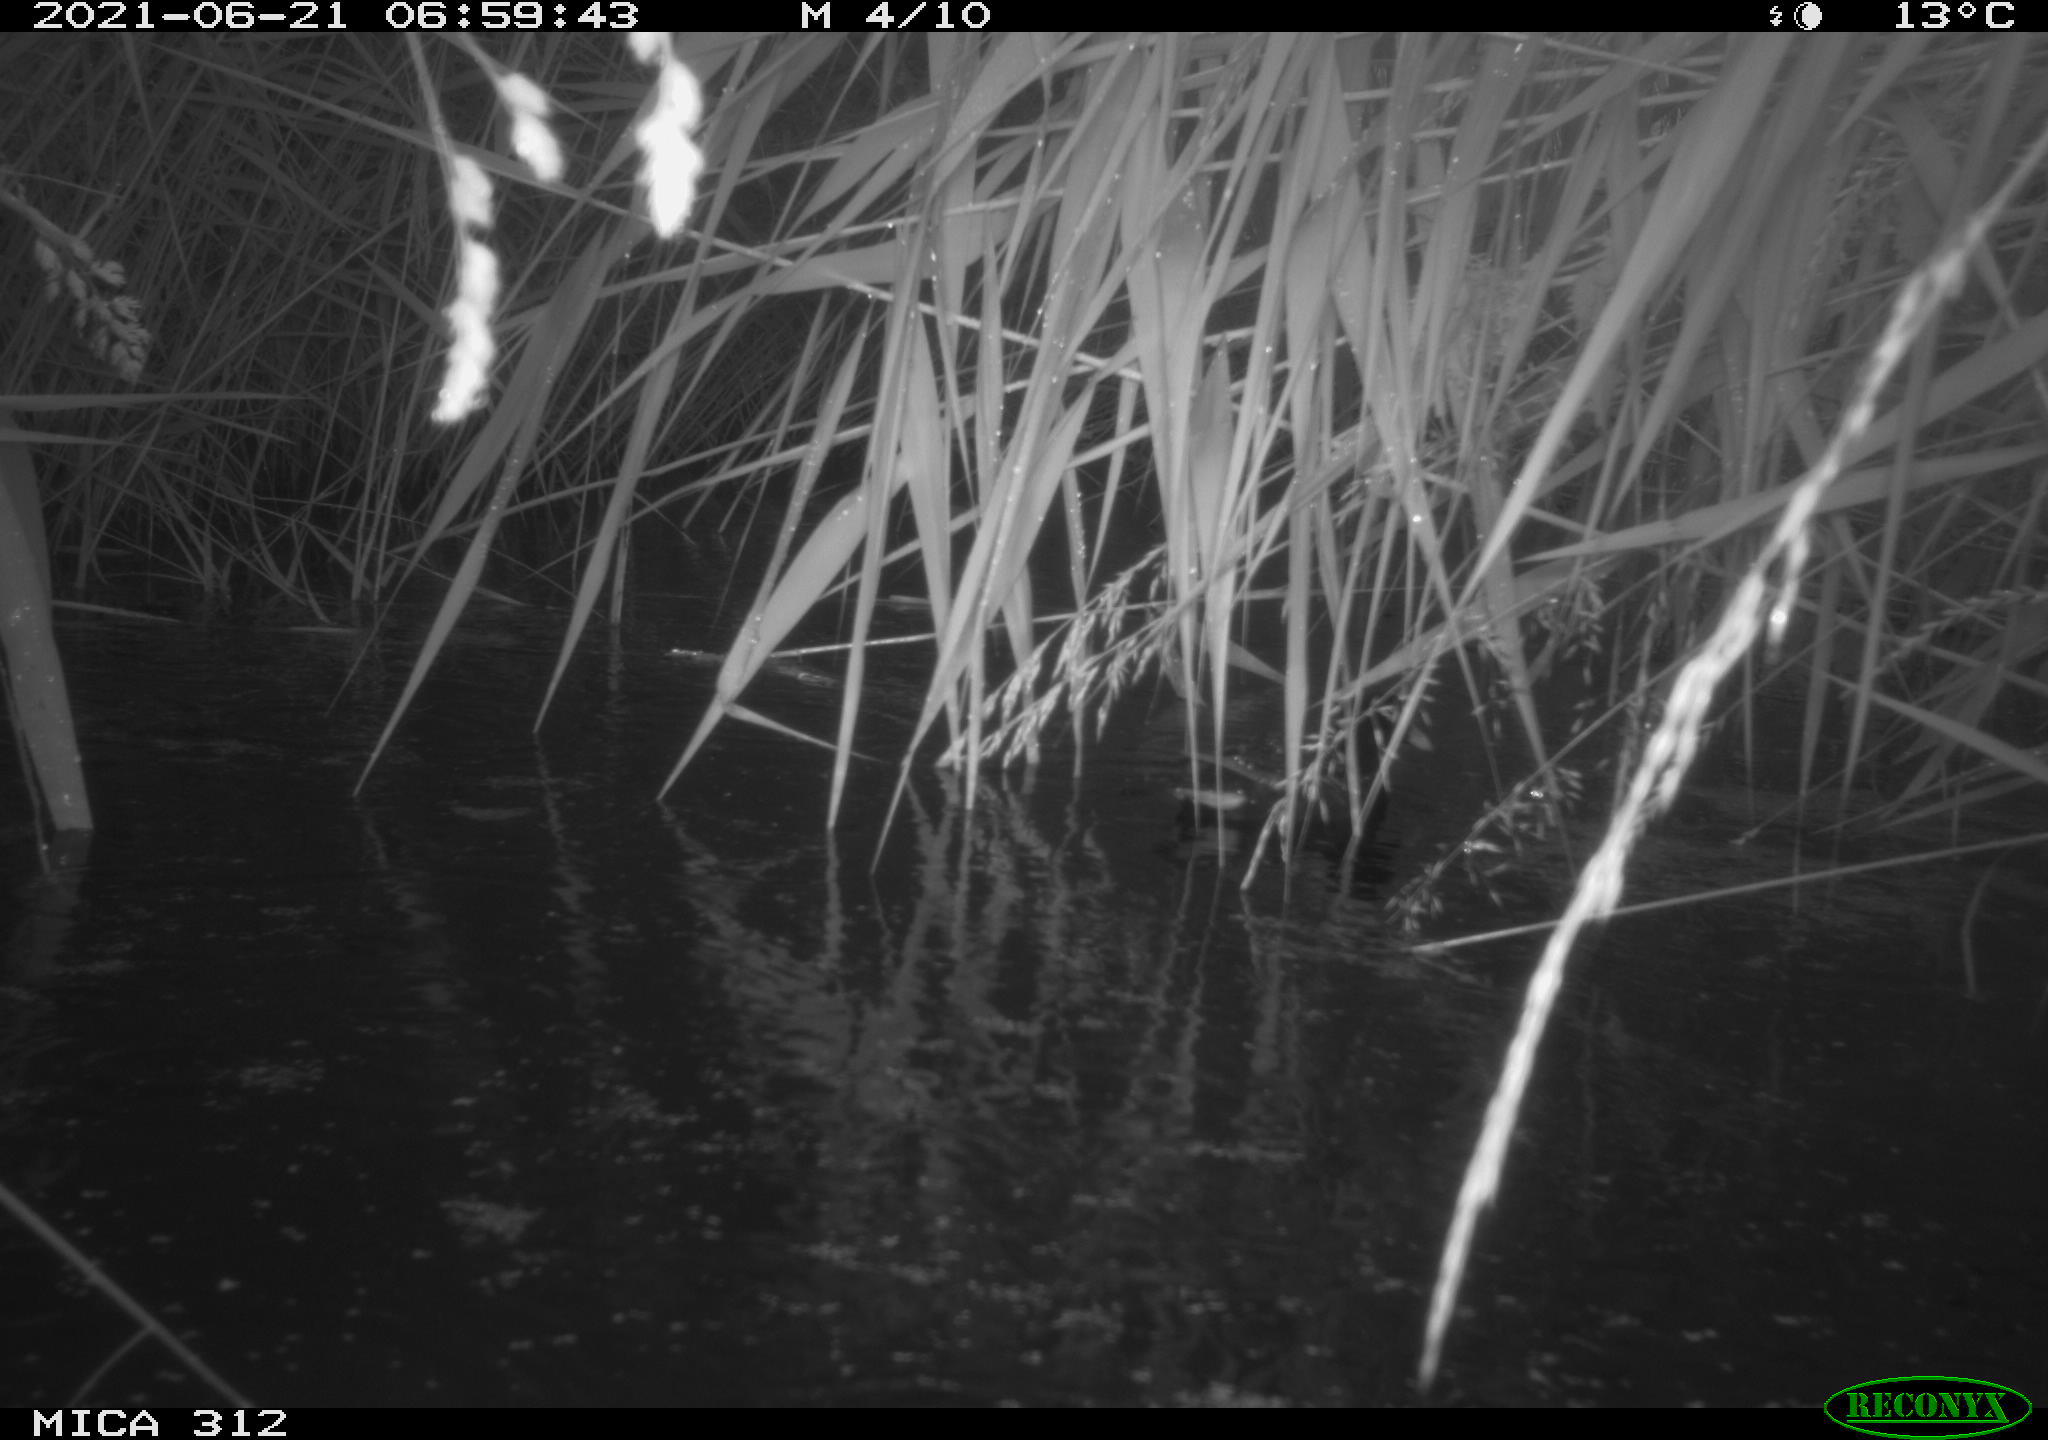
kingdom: Animalia
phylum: Chordata
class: Aves
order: Gruiformes
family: Rallidae
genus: Gallinula
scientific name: Gallinula chloropus
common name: Common moorhen
